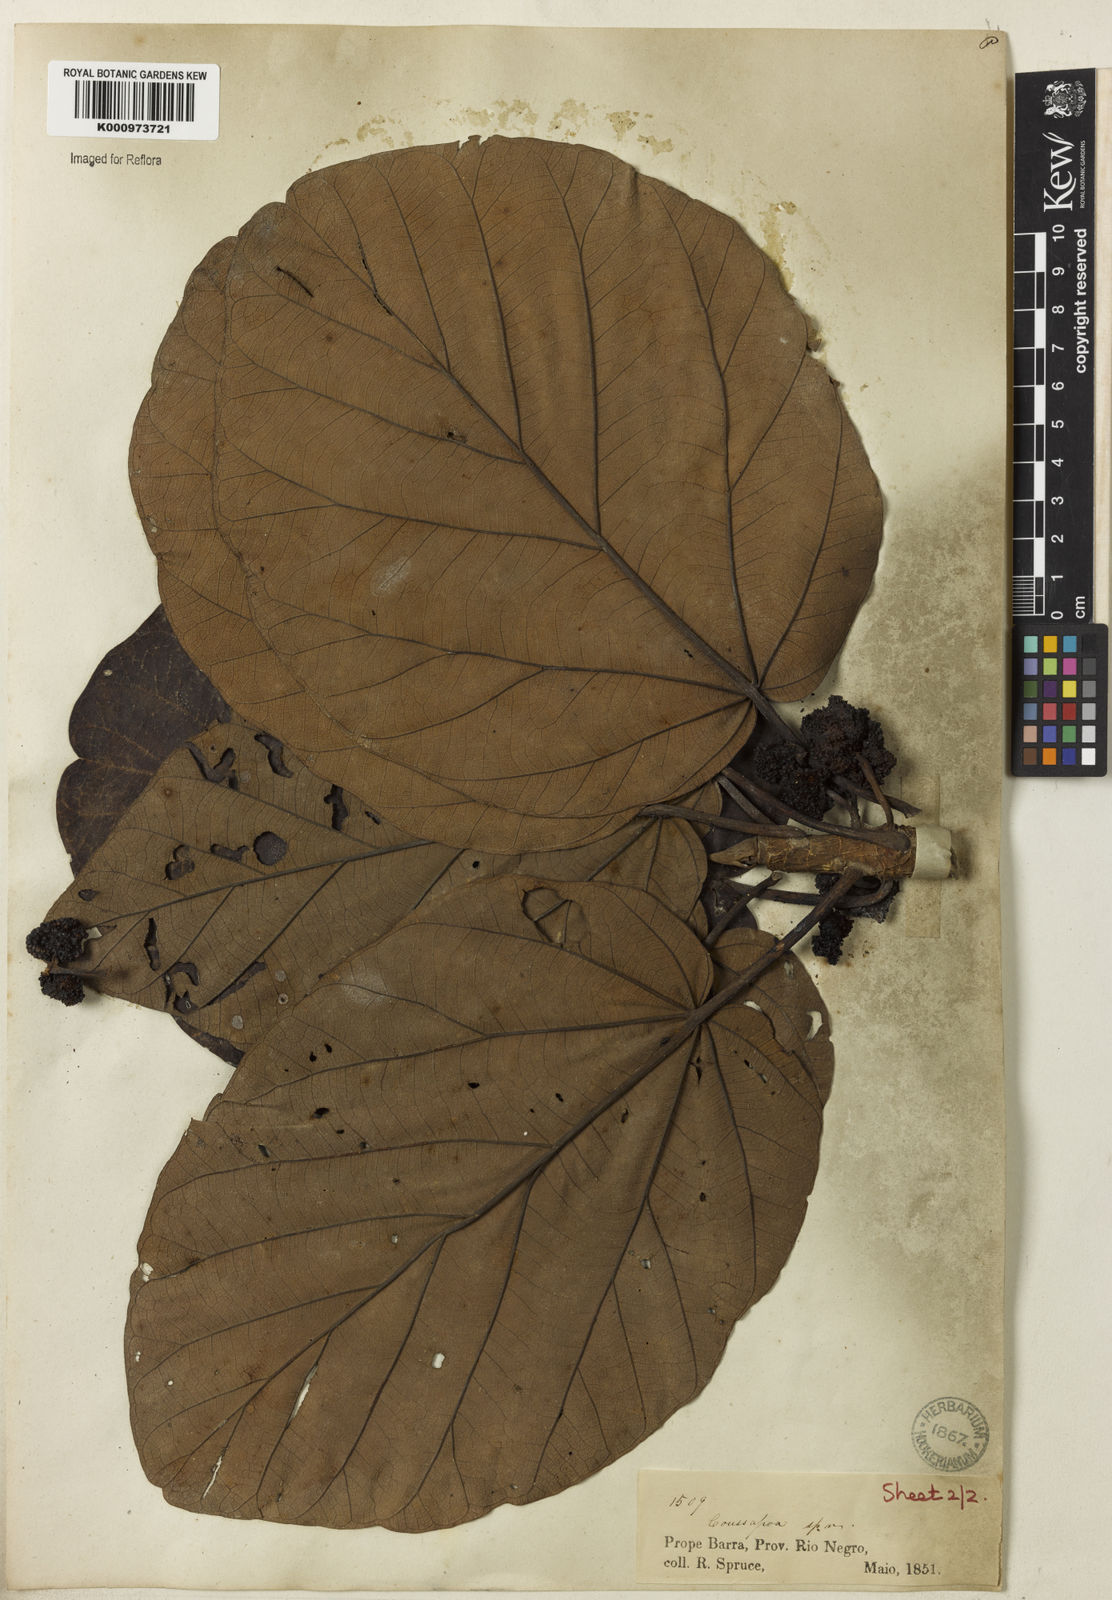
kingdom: Plantae
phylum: Tracheophyta
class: Magnoliopsida
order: Rosales
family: Urticaceae
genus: Coussapoa
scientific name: Coussapoa
